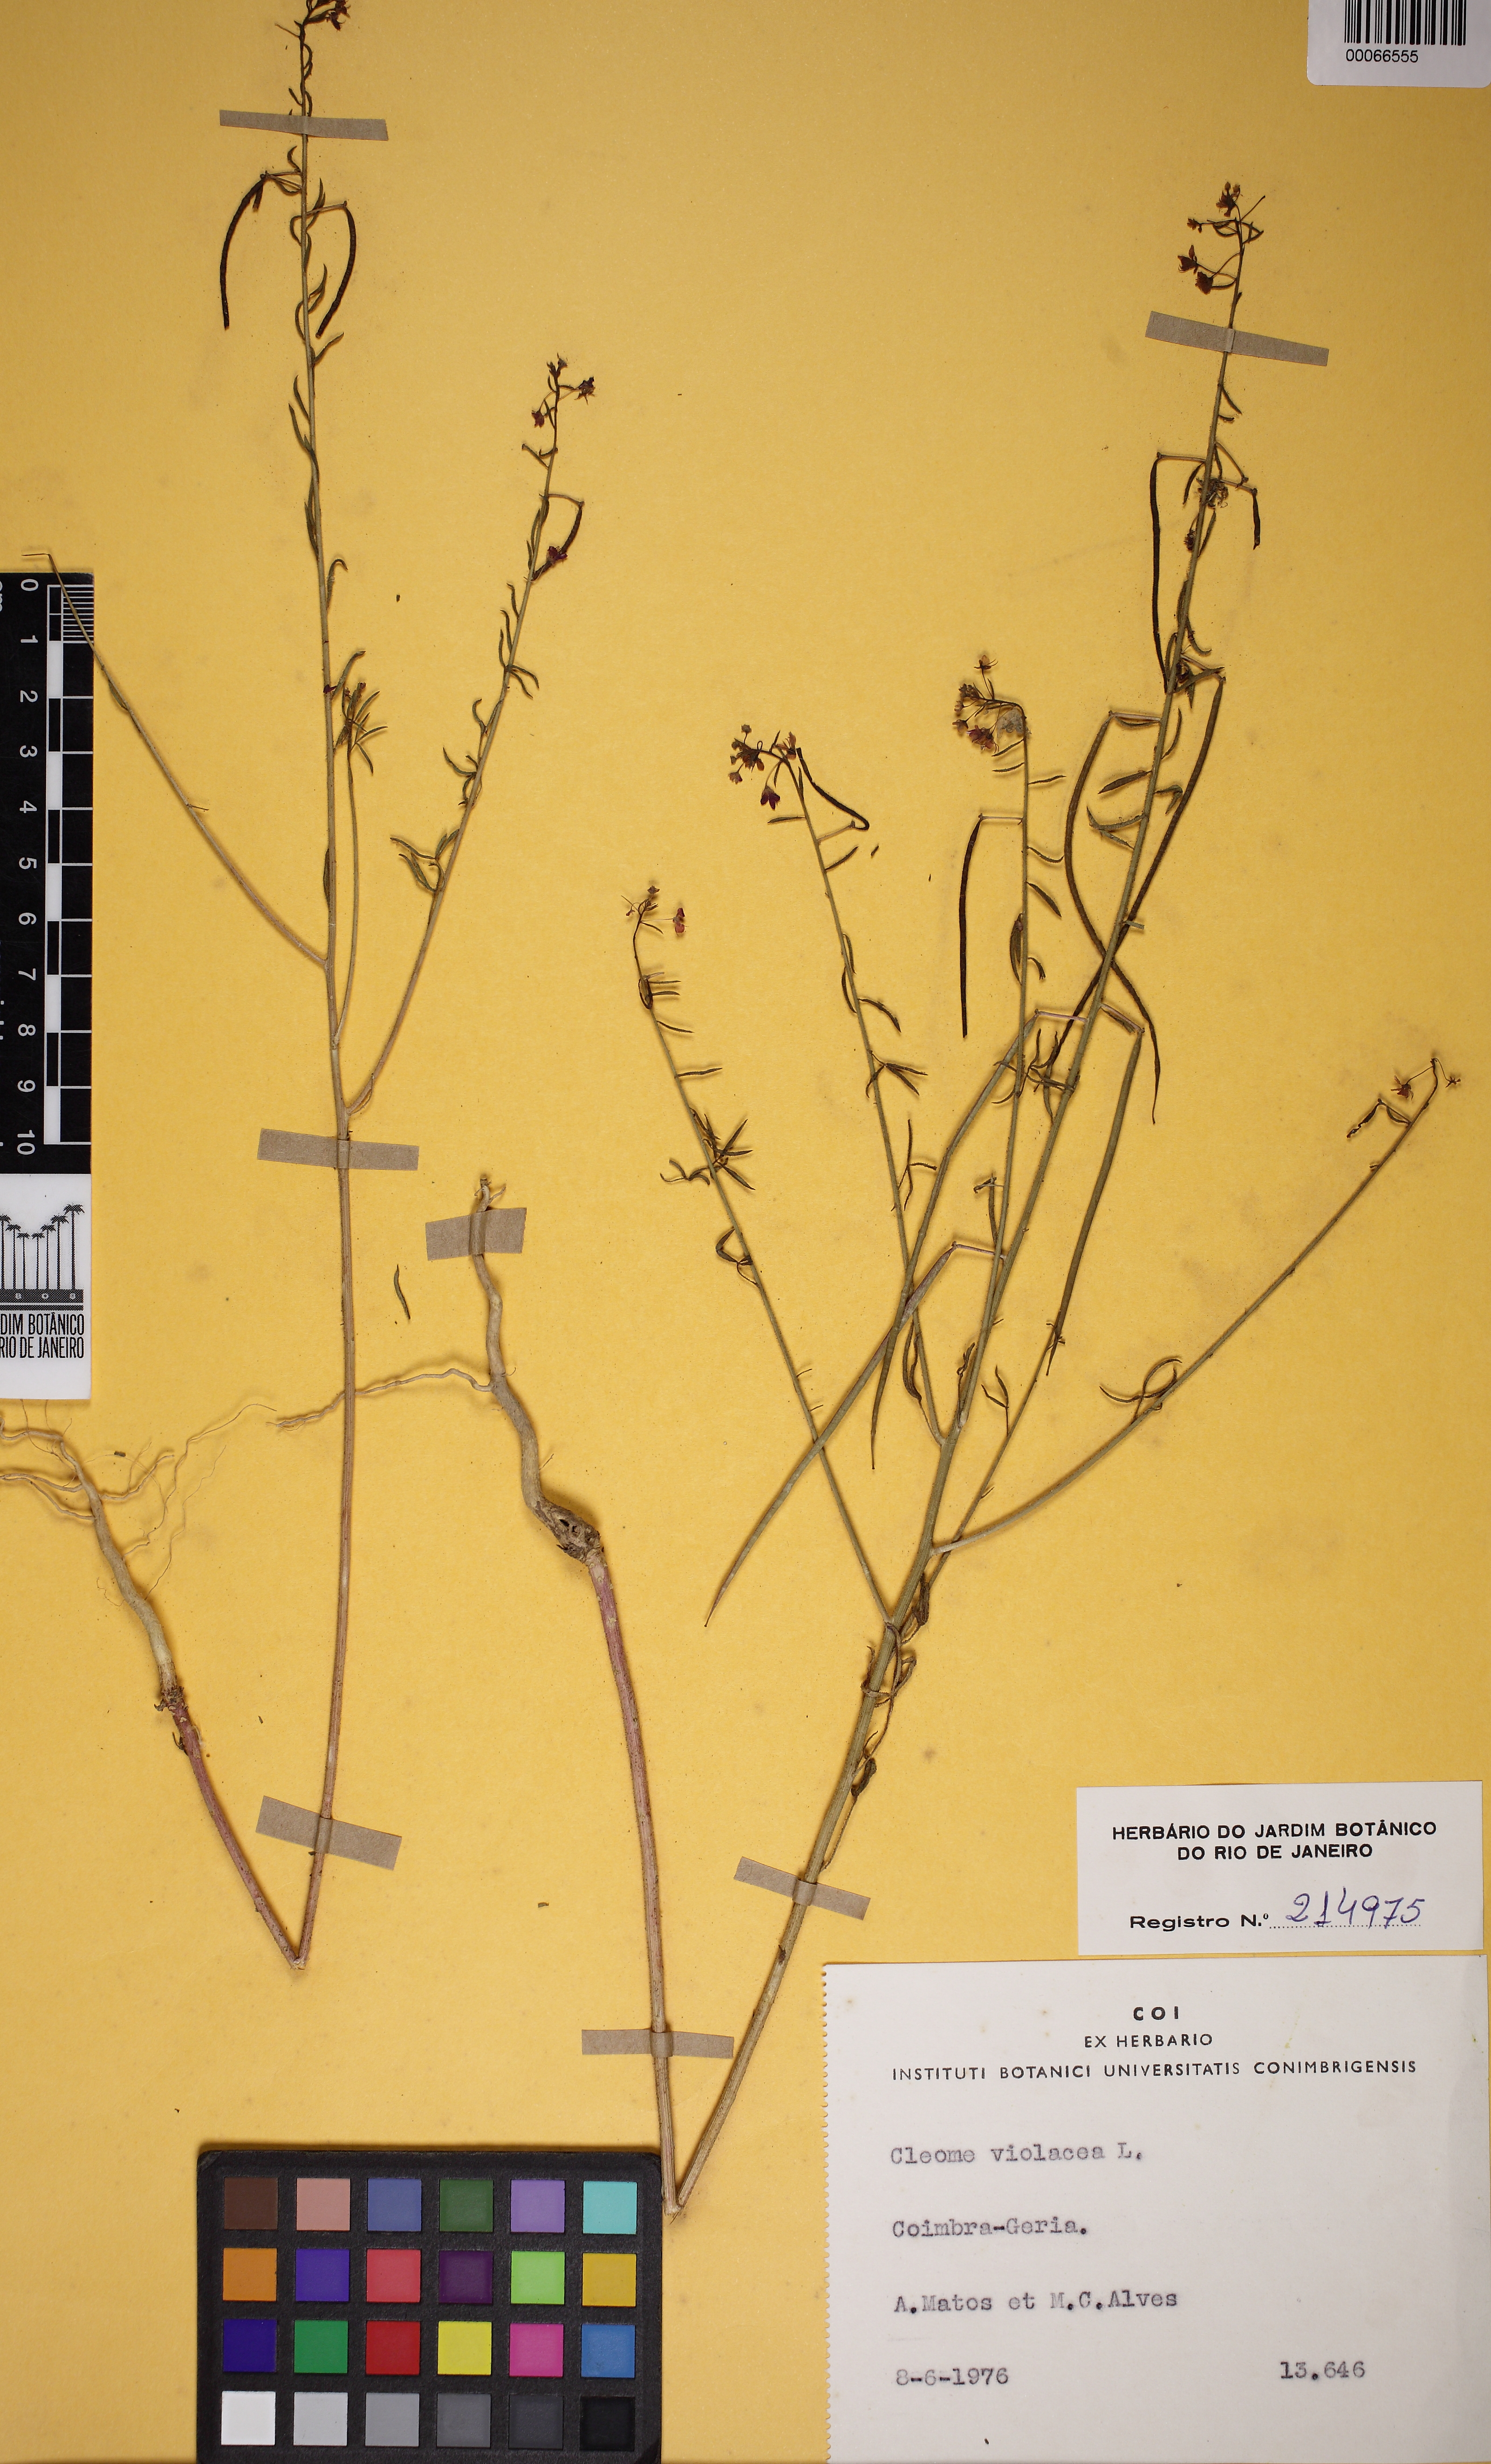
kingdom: Plantae
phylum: Tracheophyta
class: Magnoliopsida
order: Brassicales
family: Cleomaceae
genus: Cleome
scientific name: Cleome violacea
